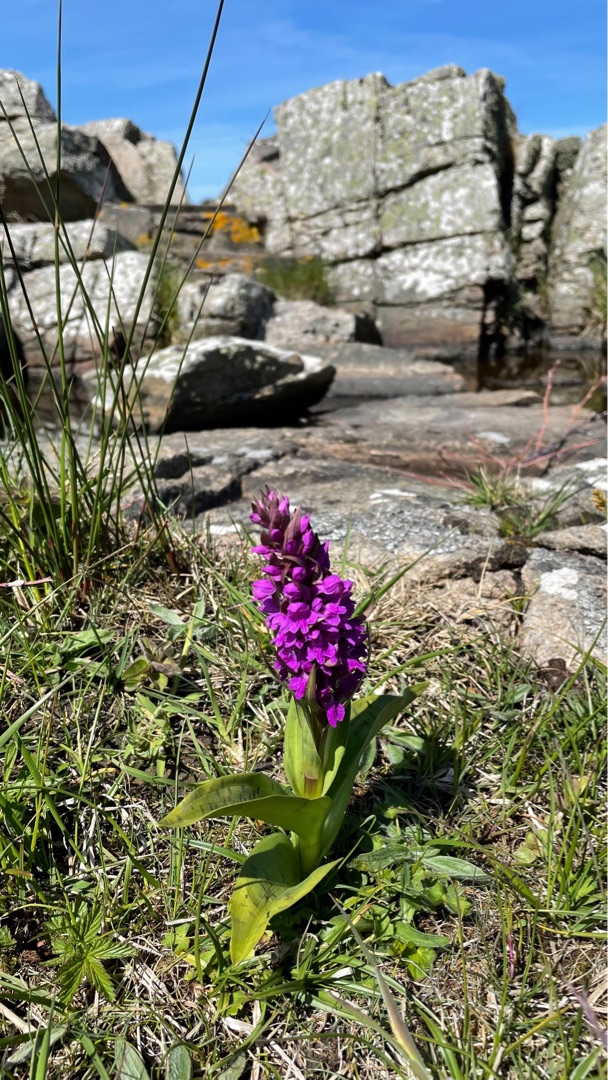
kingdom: Plantae
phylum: Tracheophyta
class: Liliopsida
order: Asparagales
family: Orchidaceae
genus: Dactylorhiza
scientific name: Dactylorhiza majalis
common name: Maj-gøgeurt
